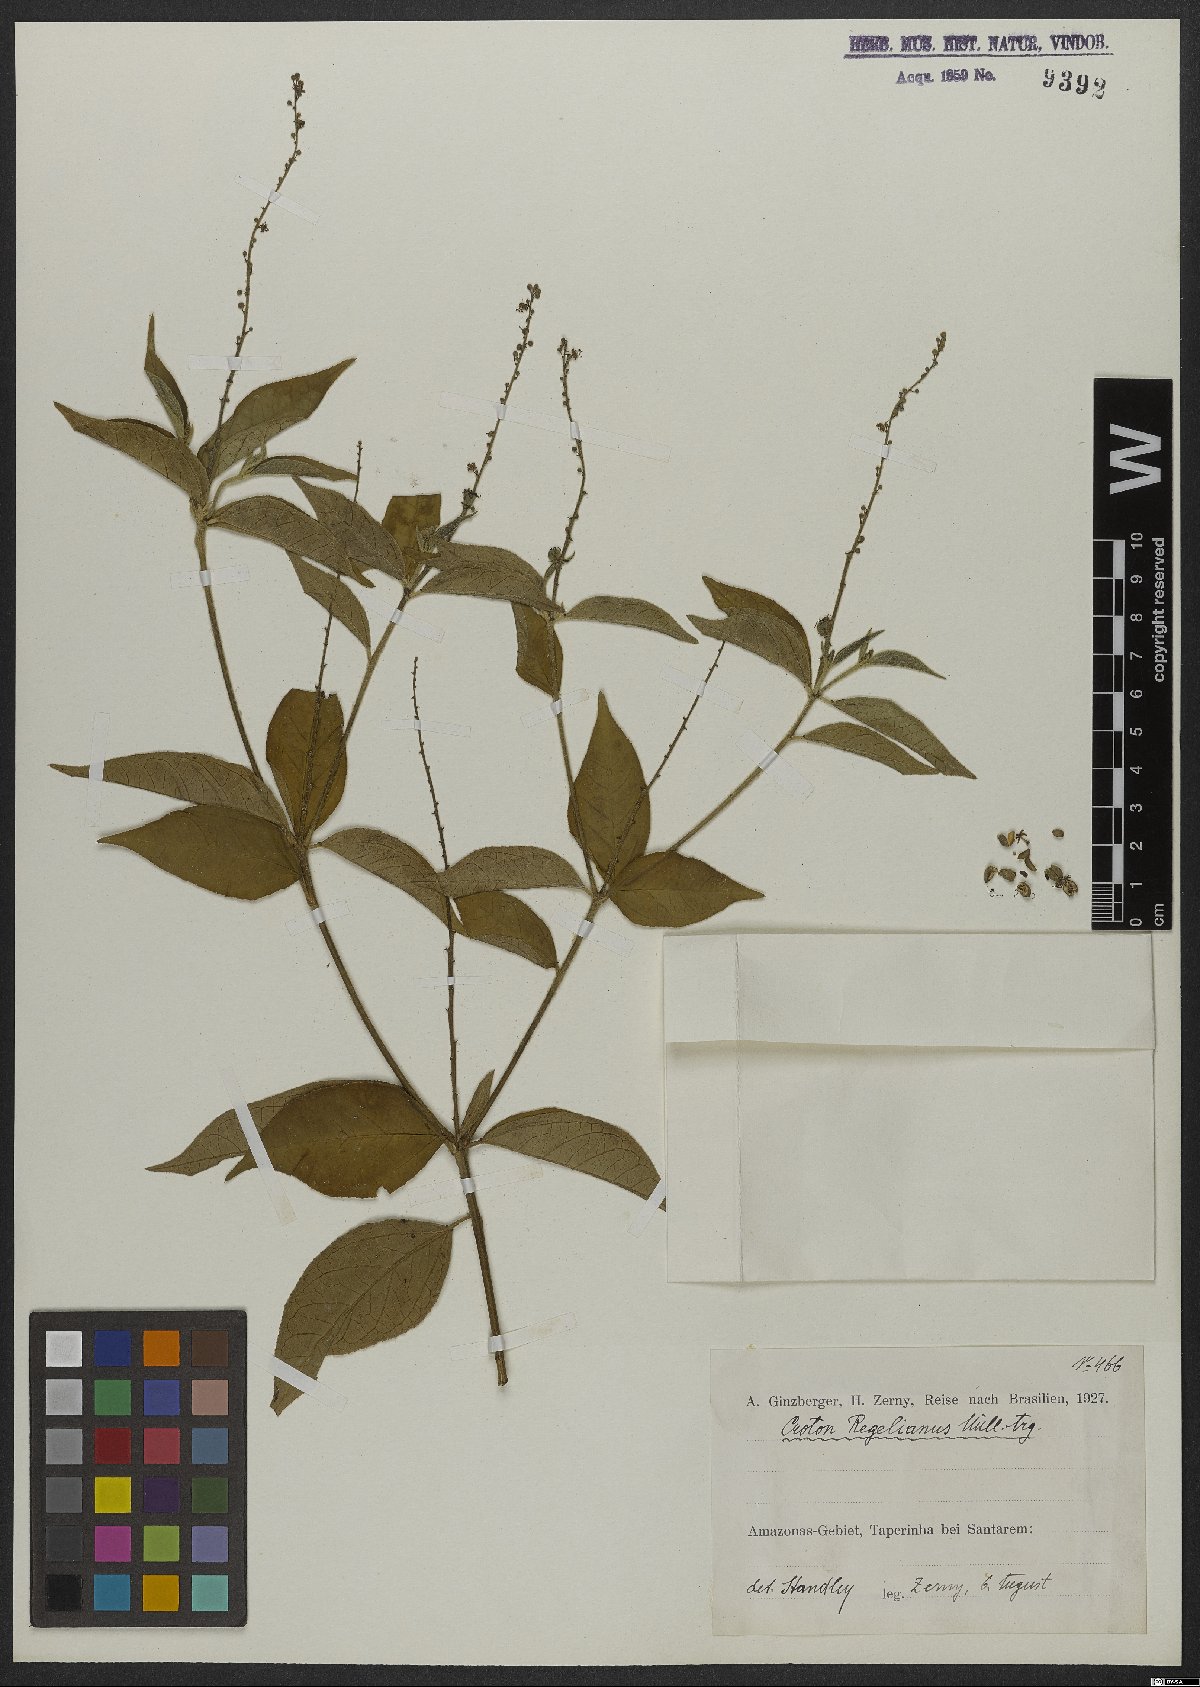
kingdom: Plantae
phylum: Tracheophyta
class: Magnoliopsida
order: Malpighiales
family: Euphorbiaceae
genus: Croton
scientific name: Croton pulegiodorus
